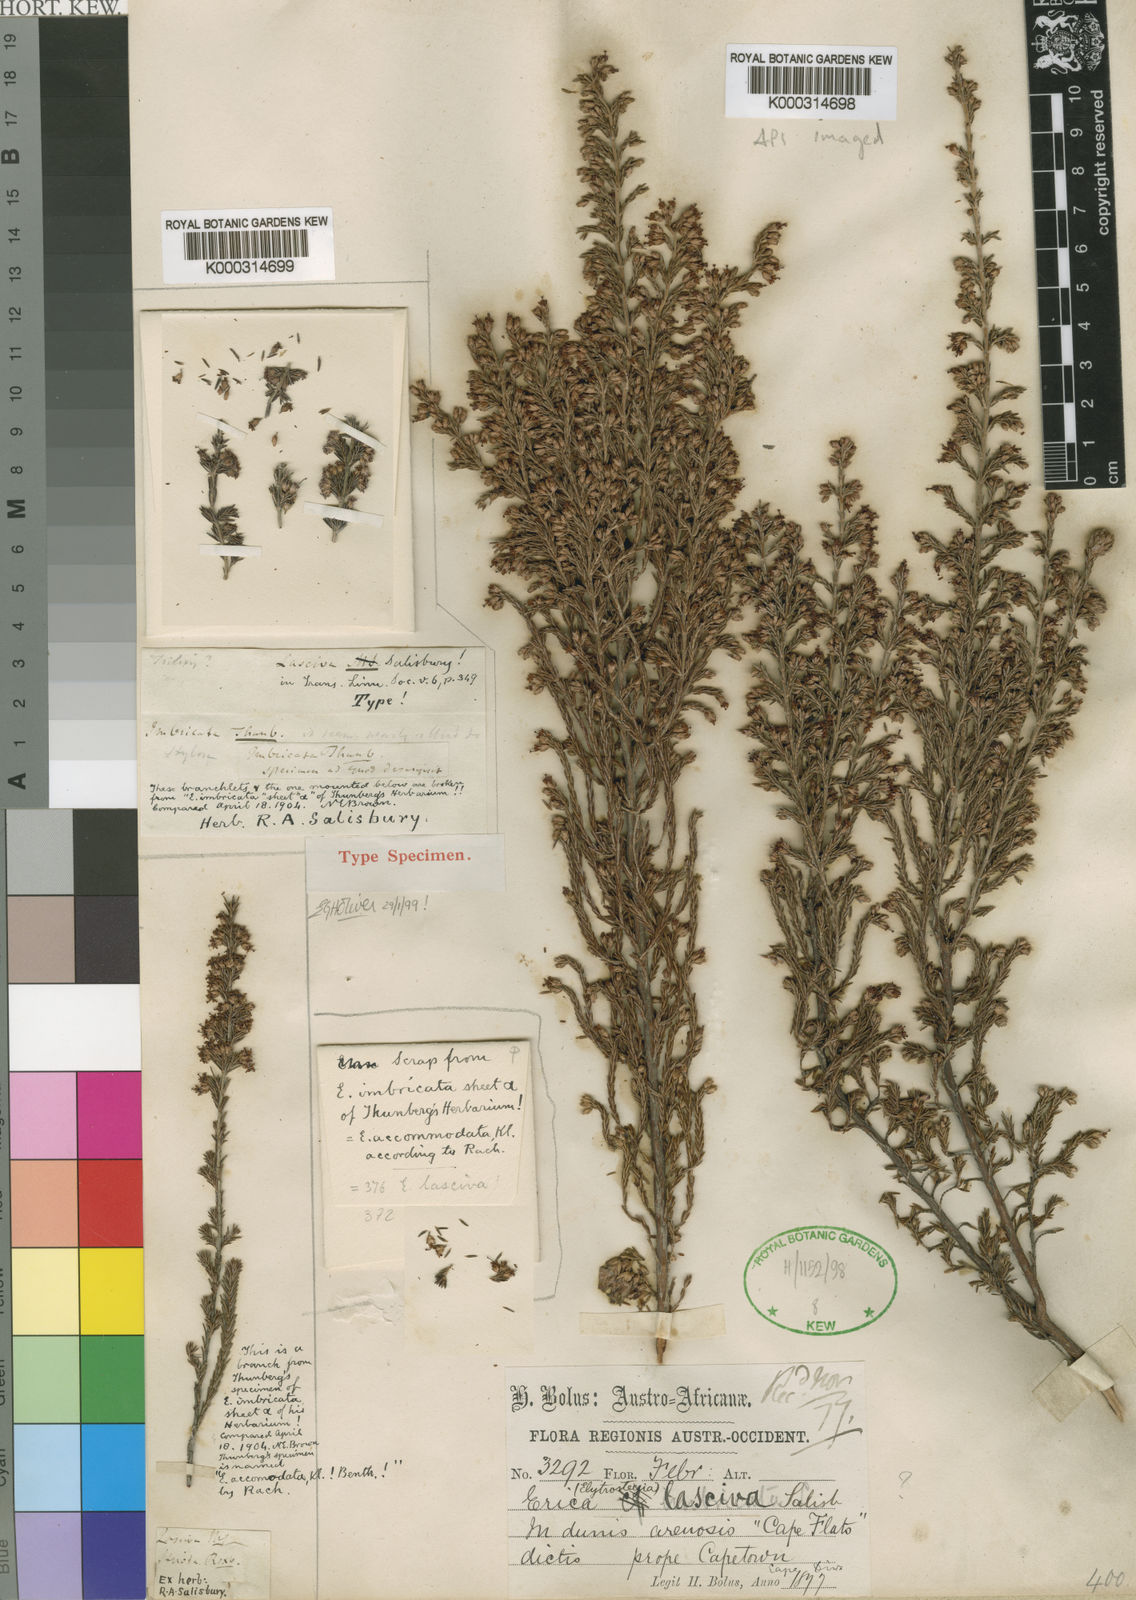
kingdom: Plantae
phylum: Tracheophyta
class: Magnoliopsida
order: Ericales
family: Ericaceae
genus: Erica
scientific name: Erica imbricata
